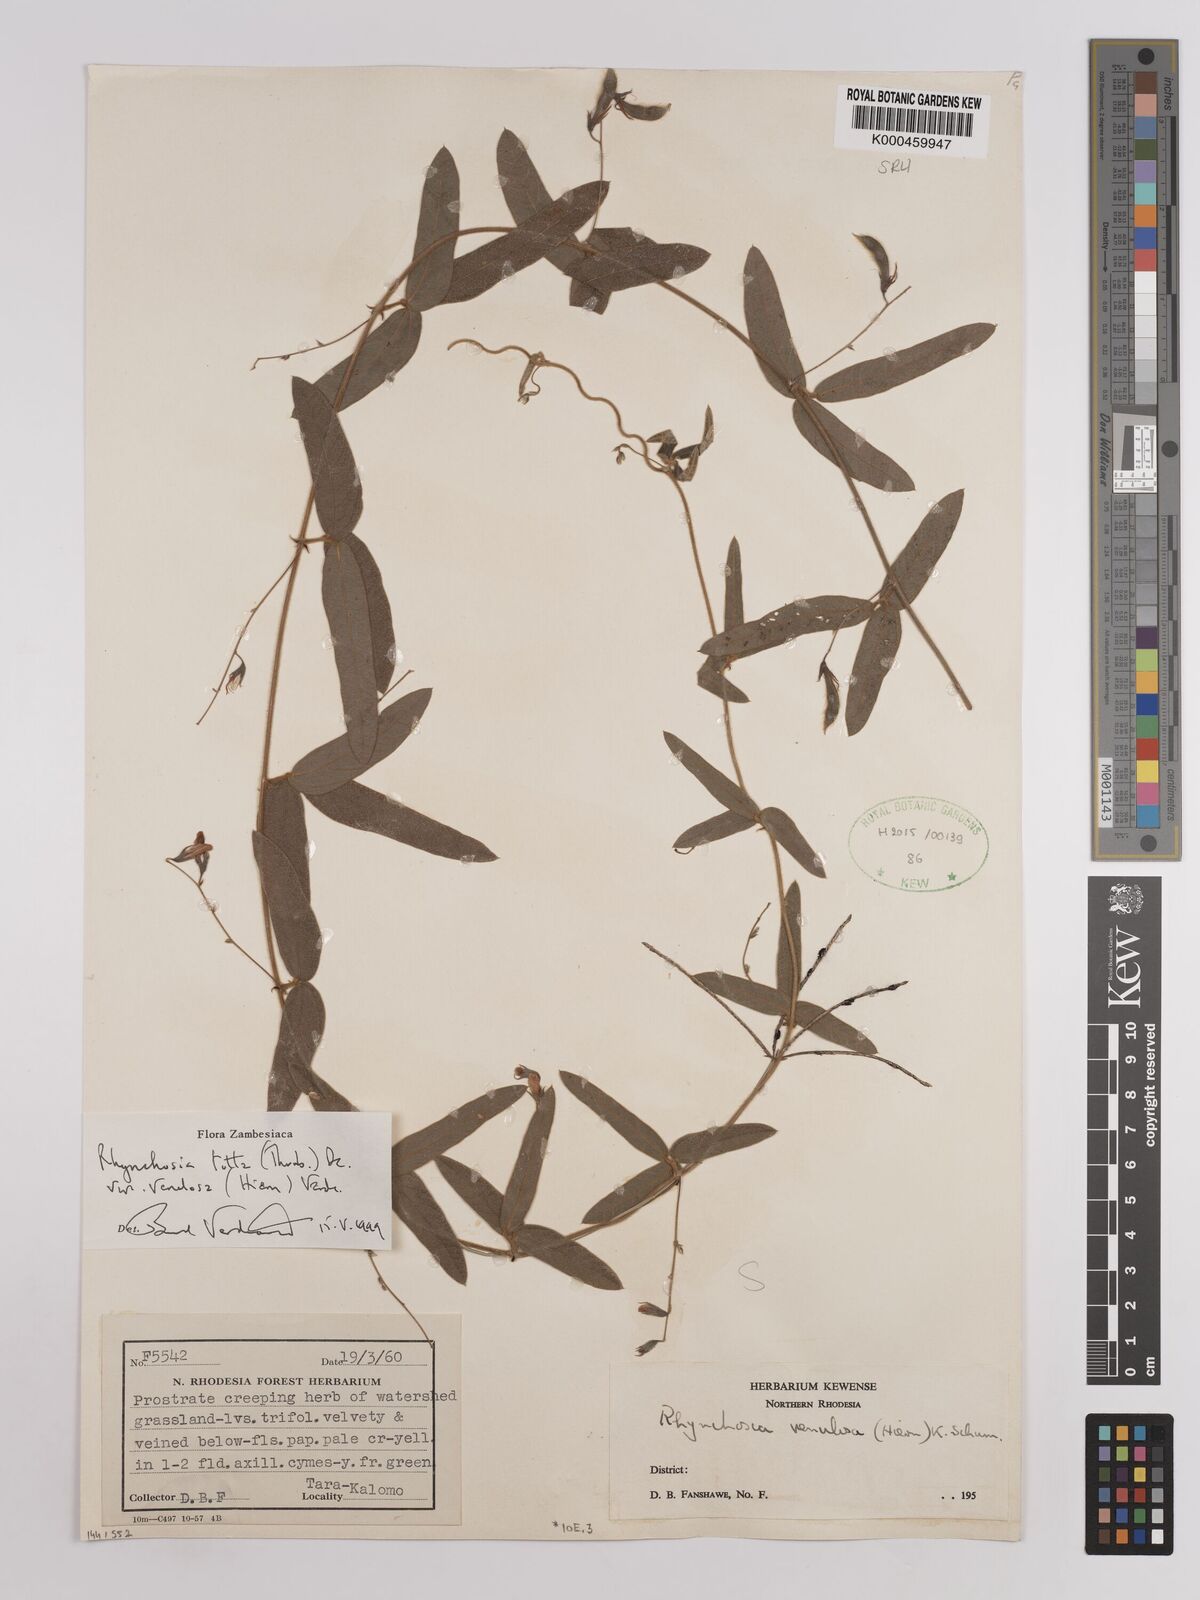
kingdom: Plantae
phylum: Tracheophyta
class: Magnoliopsida
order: Fabales
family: Fabaceae
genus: Rhynchosia
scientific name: Rhynchosia totta
